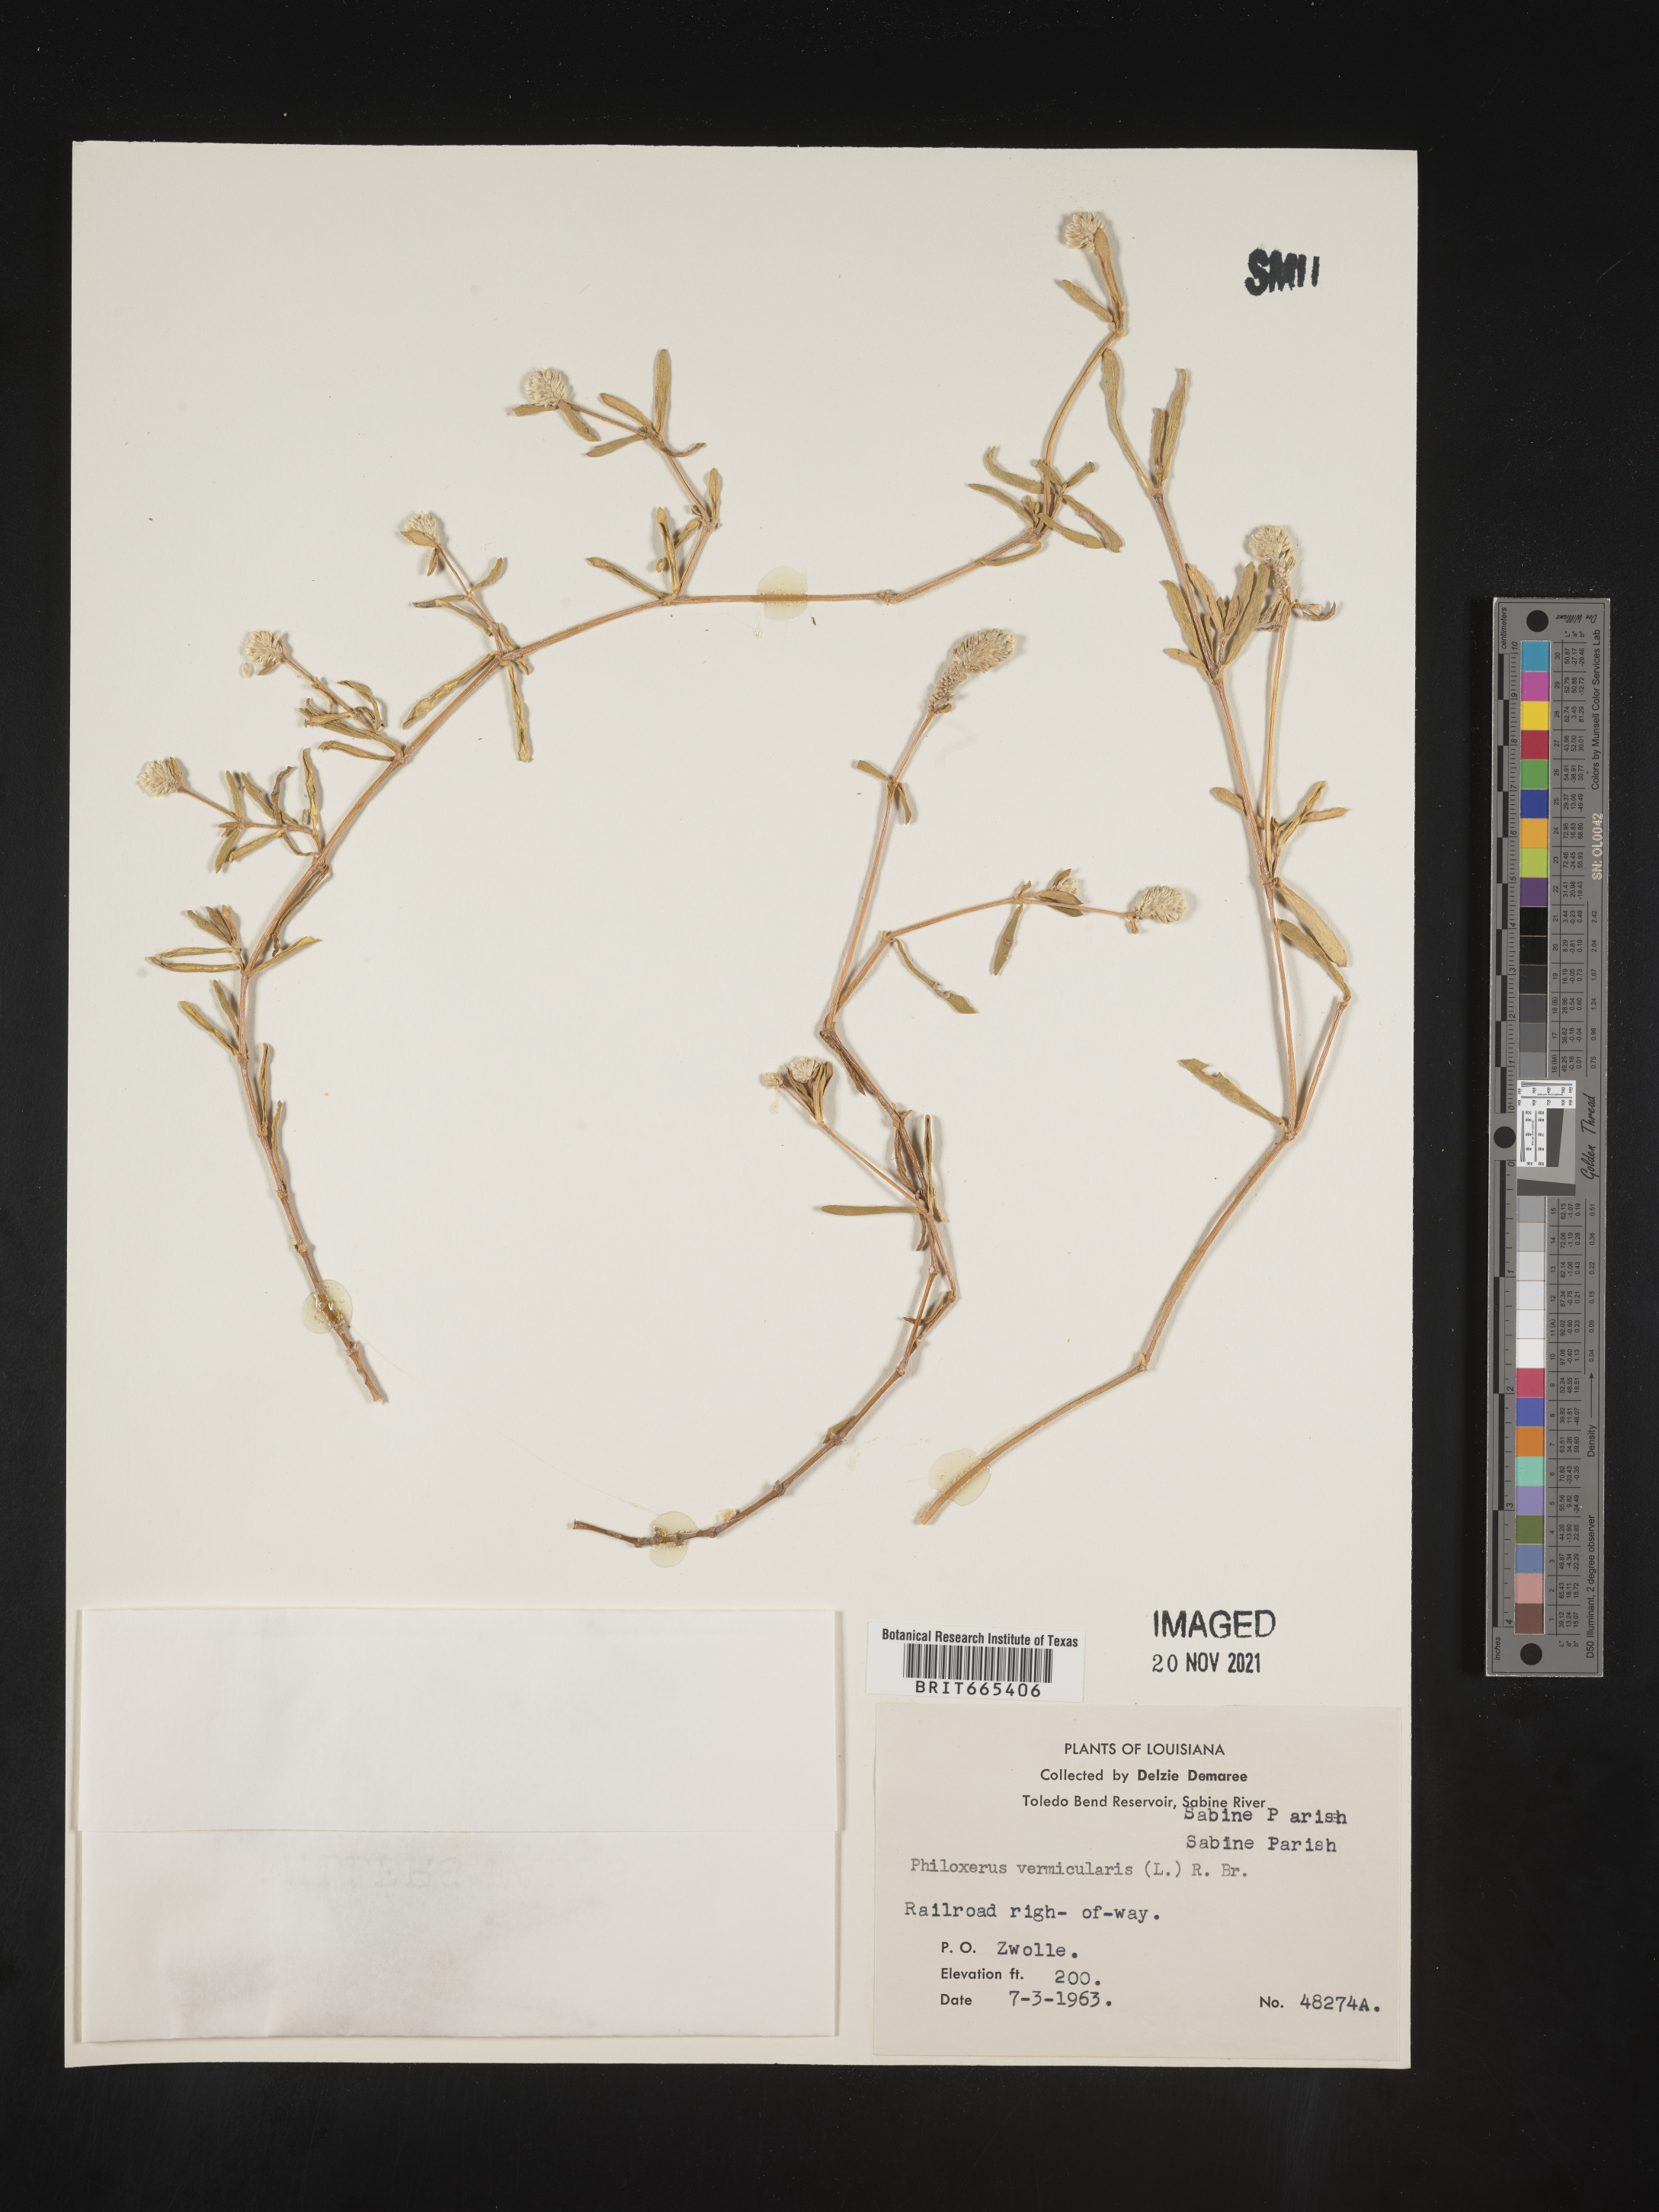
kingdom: Plantae
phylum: Tracheophyta
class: Magnoliopsida
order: Caryophyllales
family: Amaranthaceae
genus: Gomphrena
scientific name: Gomphrena
